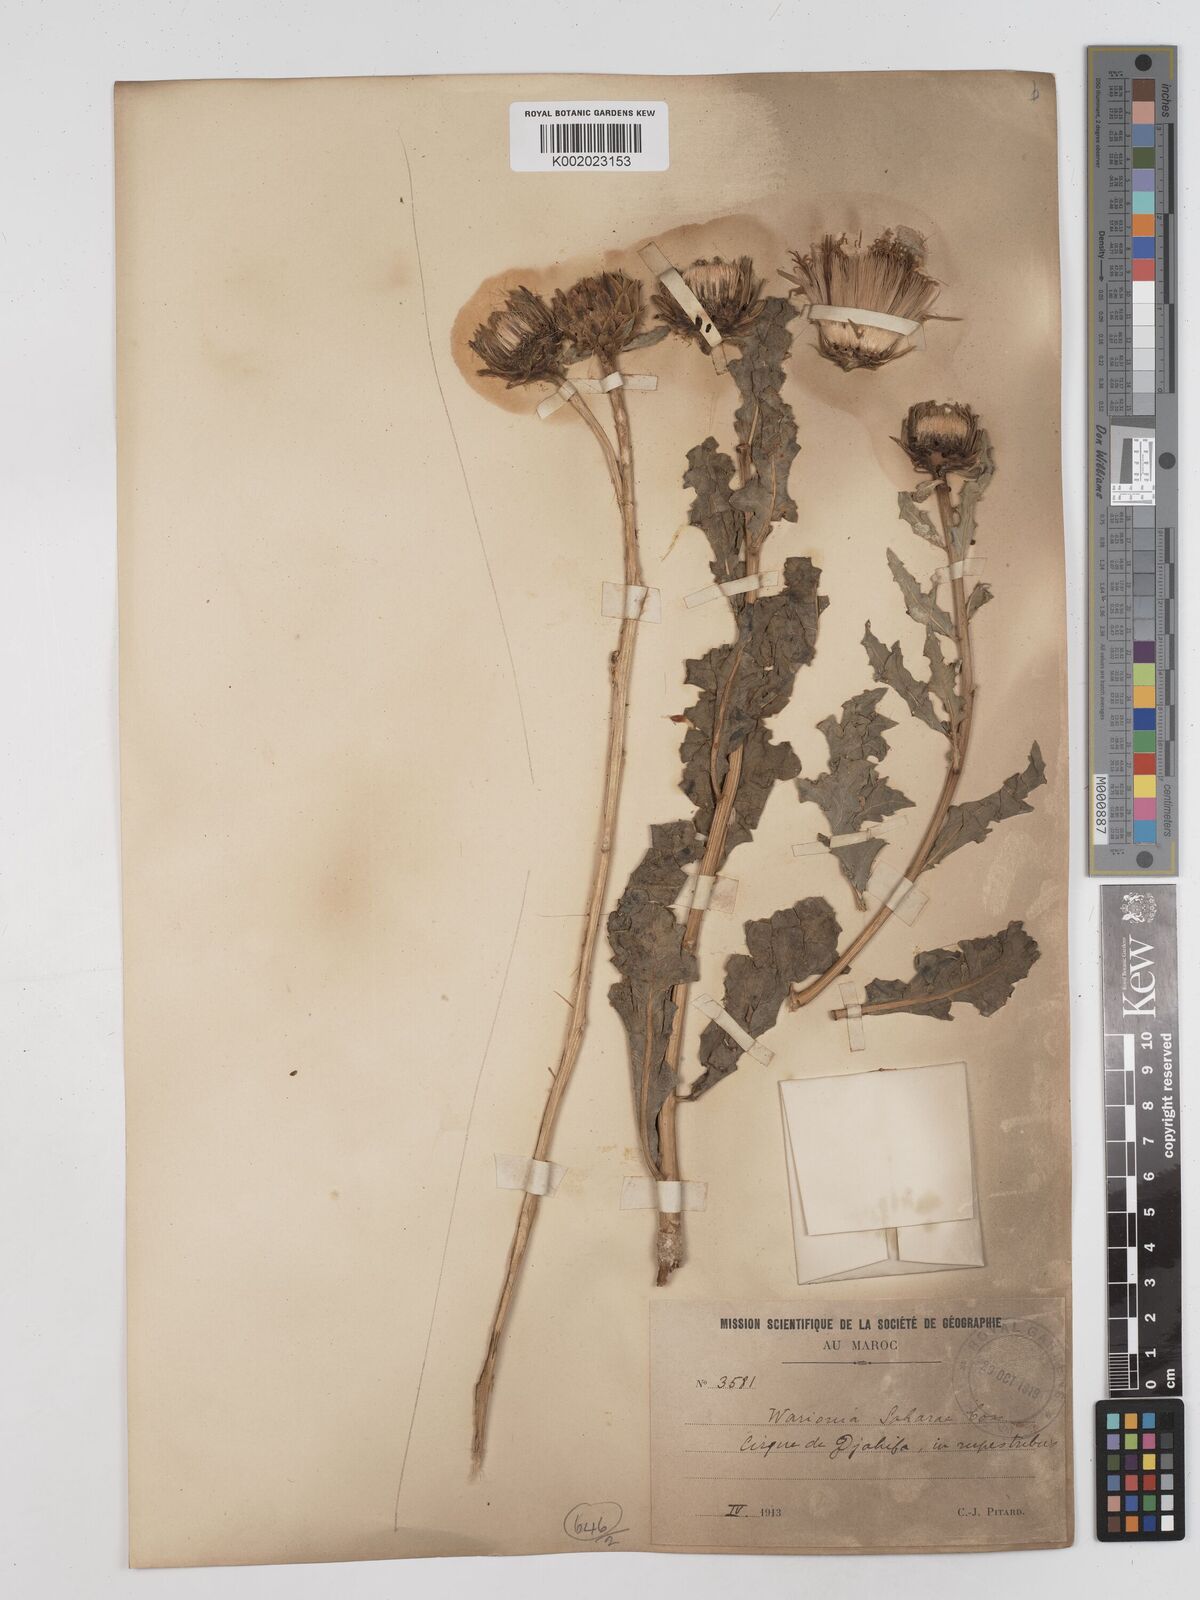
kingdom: Plantae
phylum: Tracheophyta
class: Magnoliopsida
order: Asterales
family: Asteraceae
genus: Warionia
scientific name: Warionia saharae
